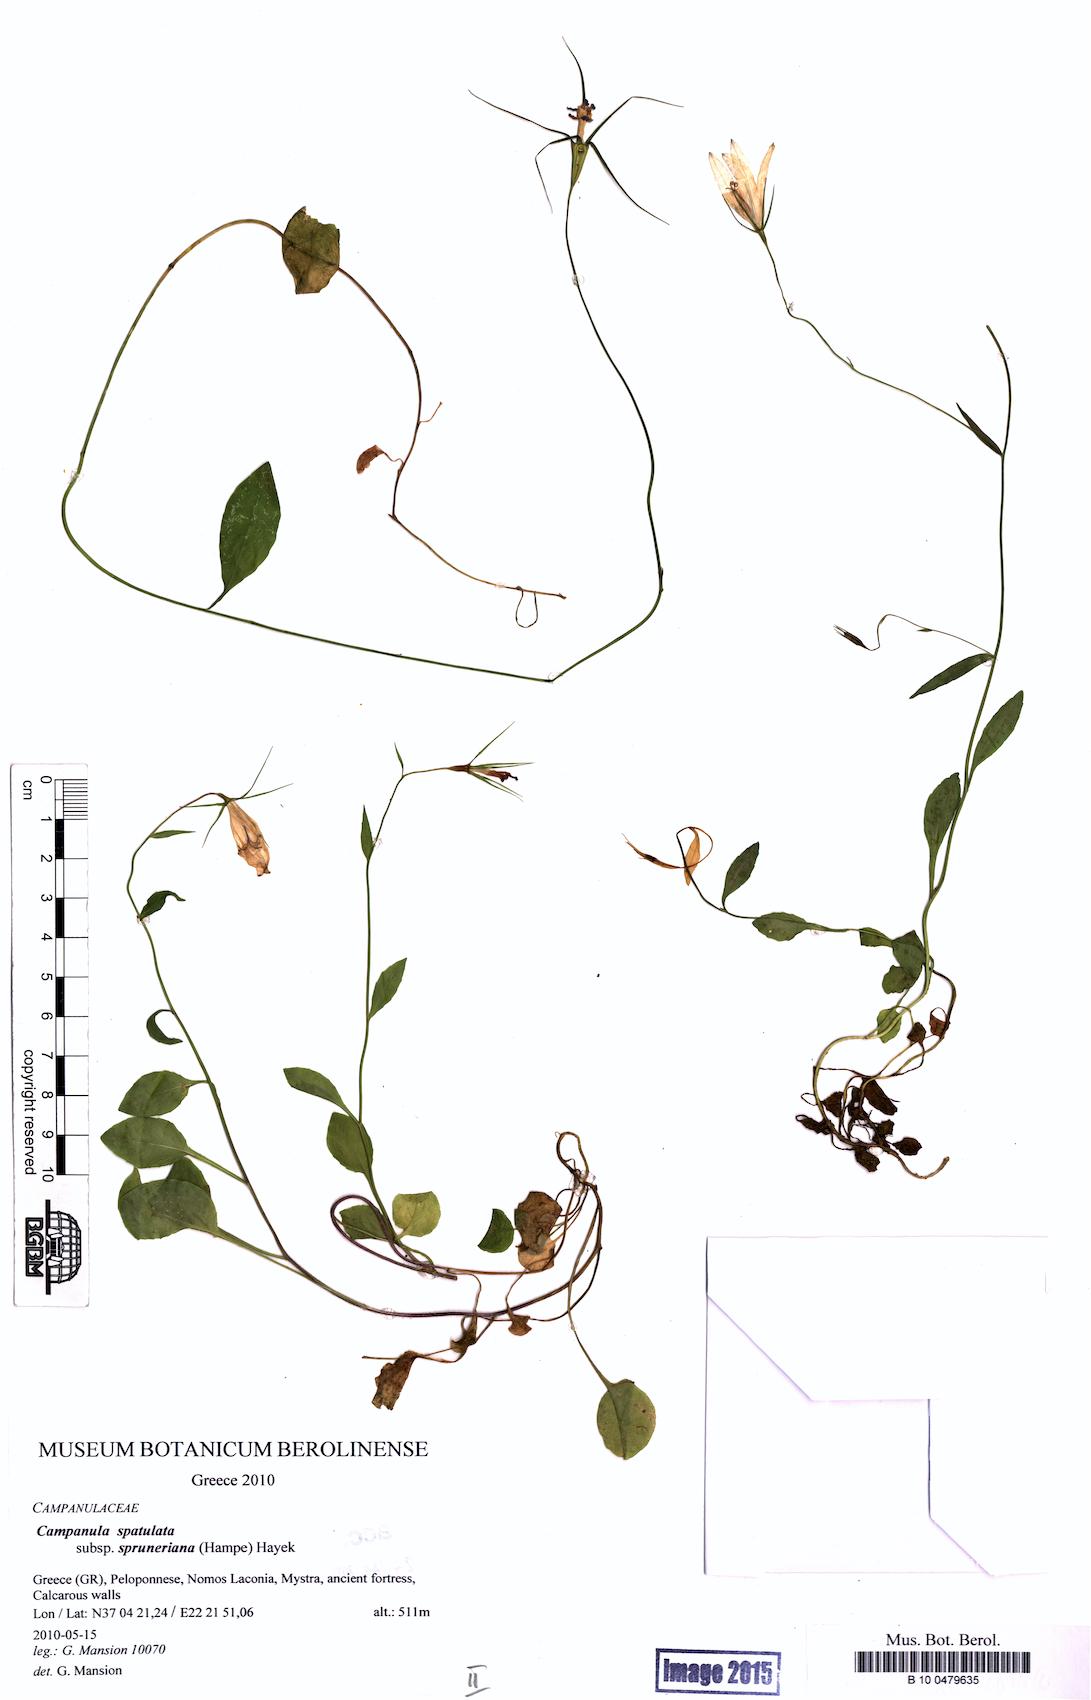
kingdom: Plantae
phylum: Tracheophyta
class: Magnoliopsida
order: Asterales
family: Campanulaceae
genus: Campanula
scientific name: Campanula spatulata
